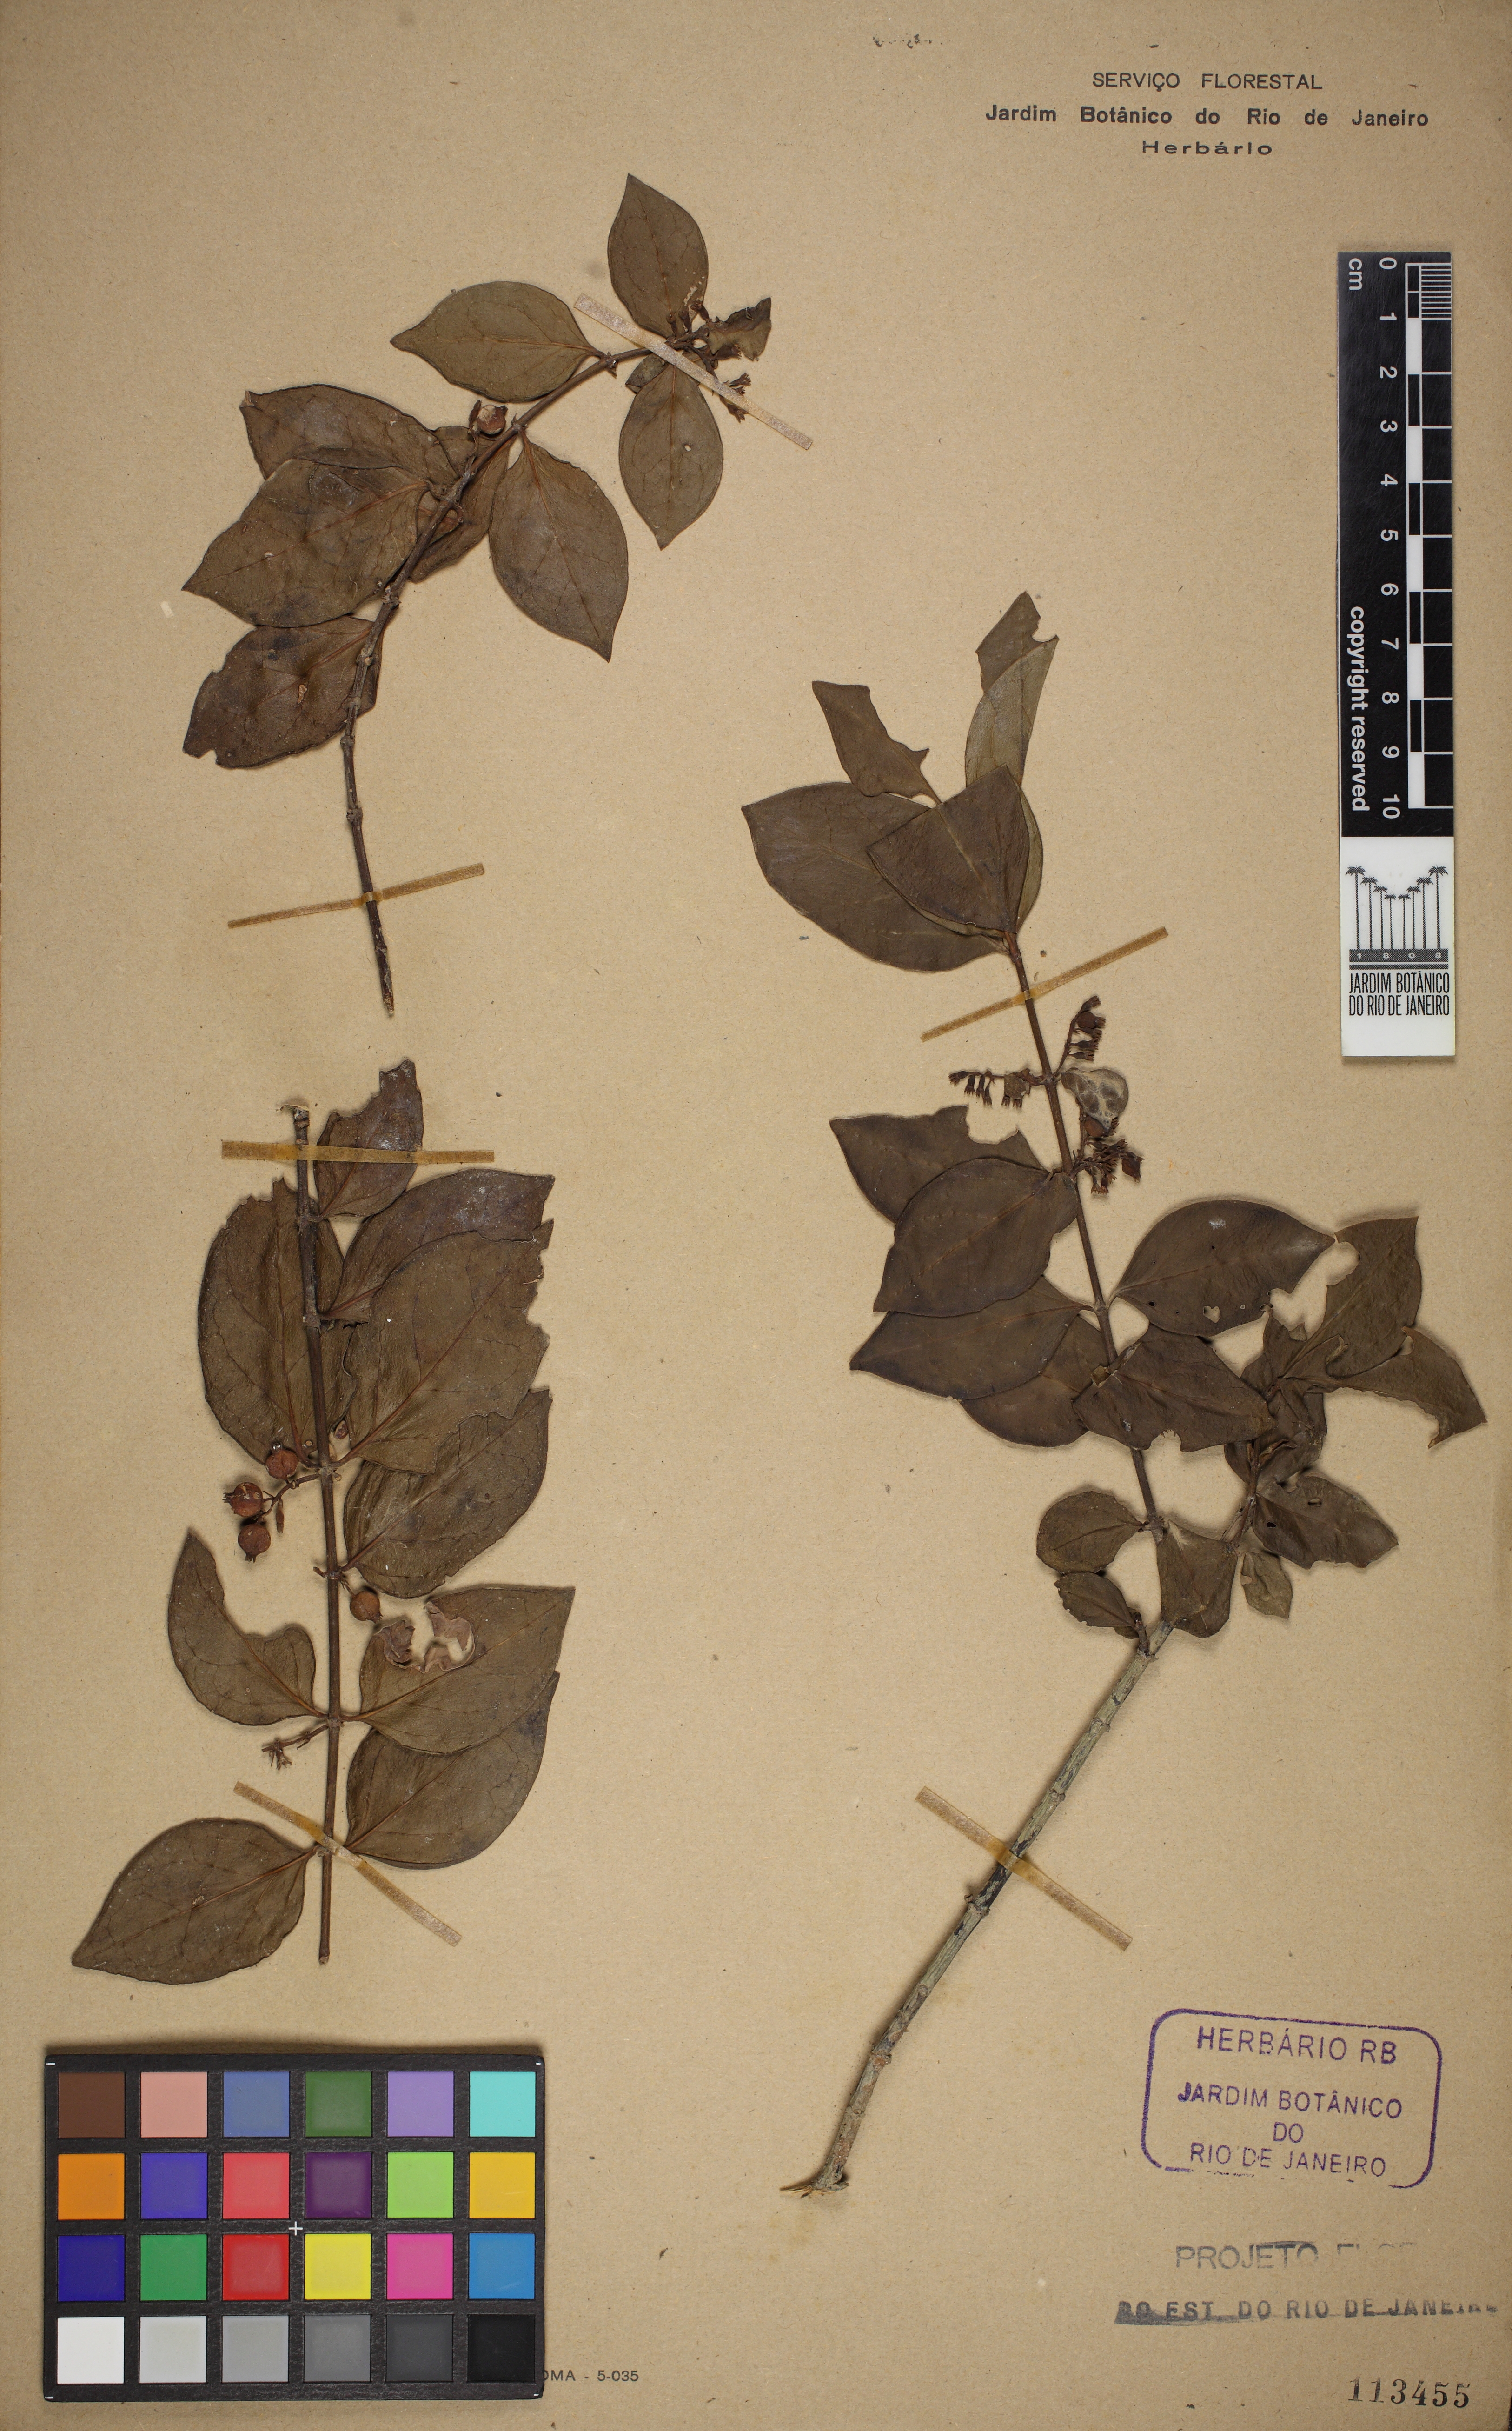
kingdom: Plantae
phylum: Tracheophyta
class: Magnoliopsida
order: Gentianales
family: Rubiaceae
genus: Chiococca
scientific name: Chiococca alba
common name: Snowberry
